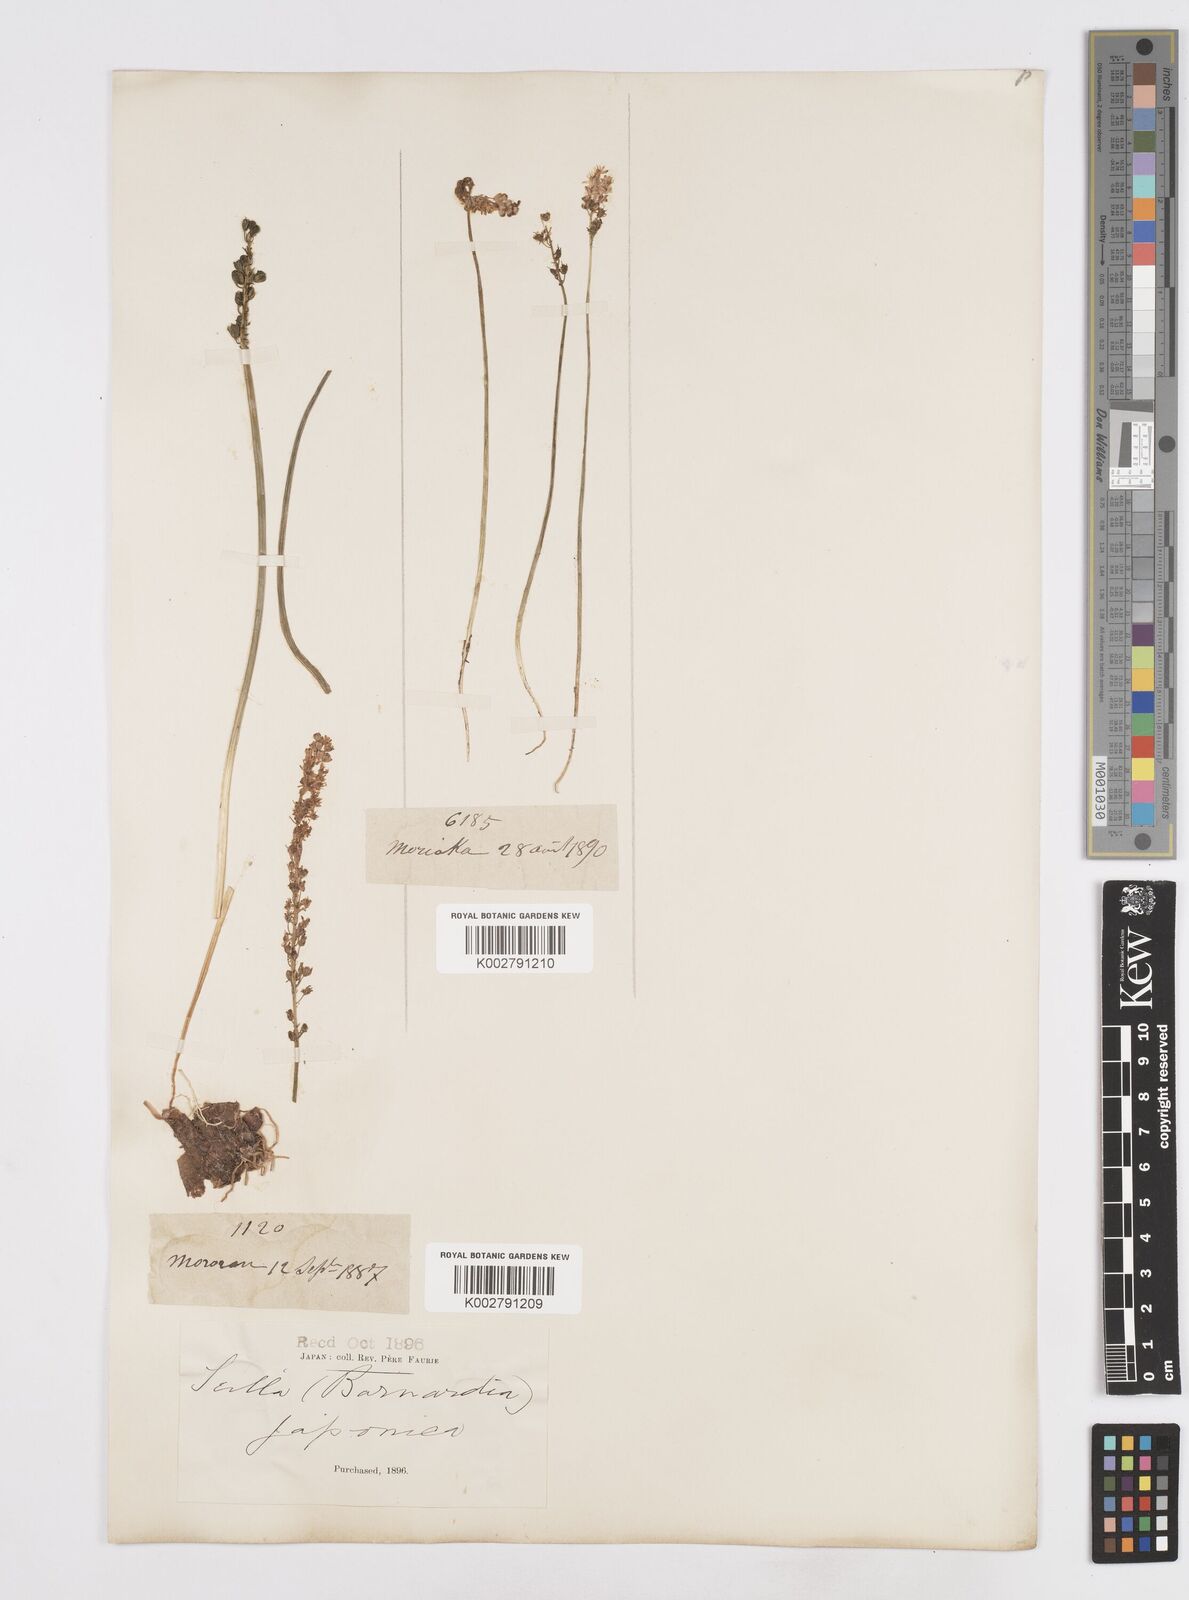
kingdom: Plantae
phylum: Tracheophyta
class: Liliopsida
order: Liliales
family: Melanthiaceae
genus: Helonias
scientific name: Helonias breviscapa
